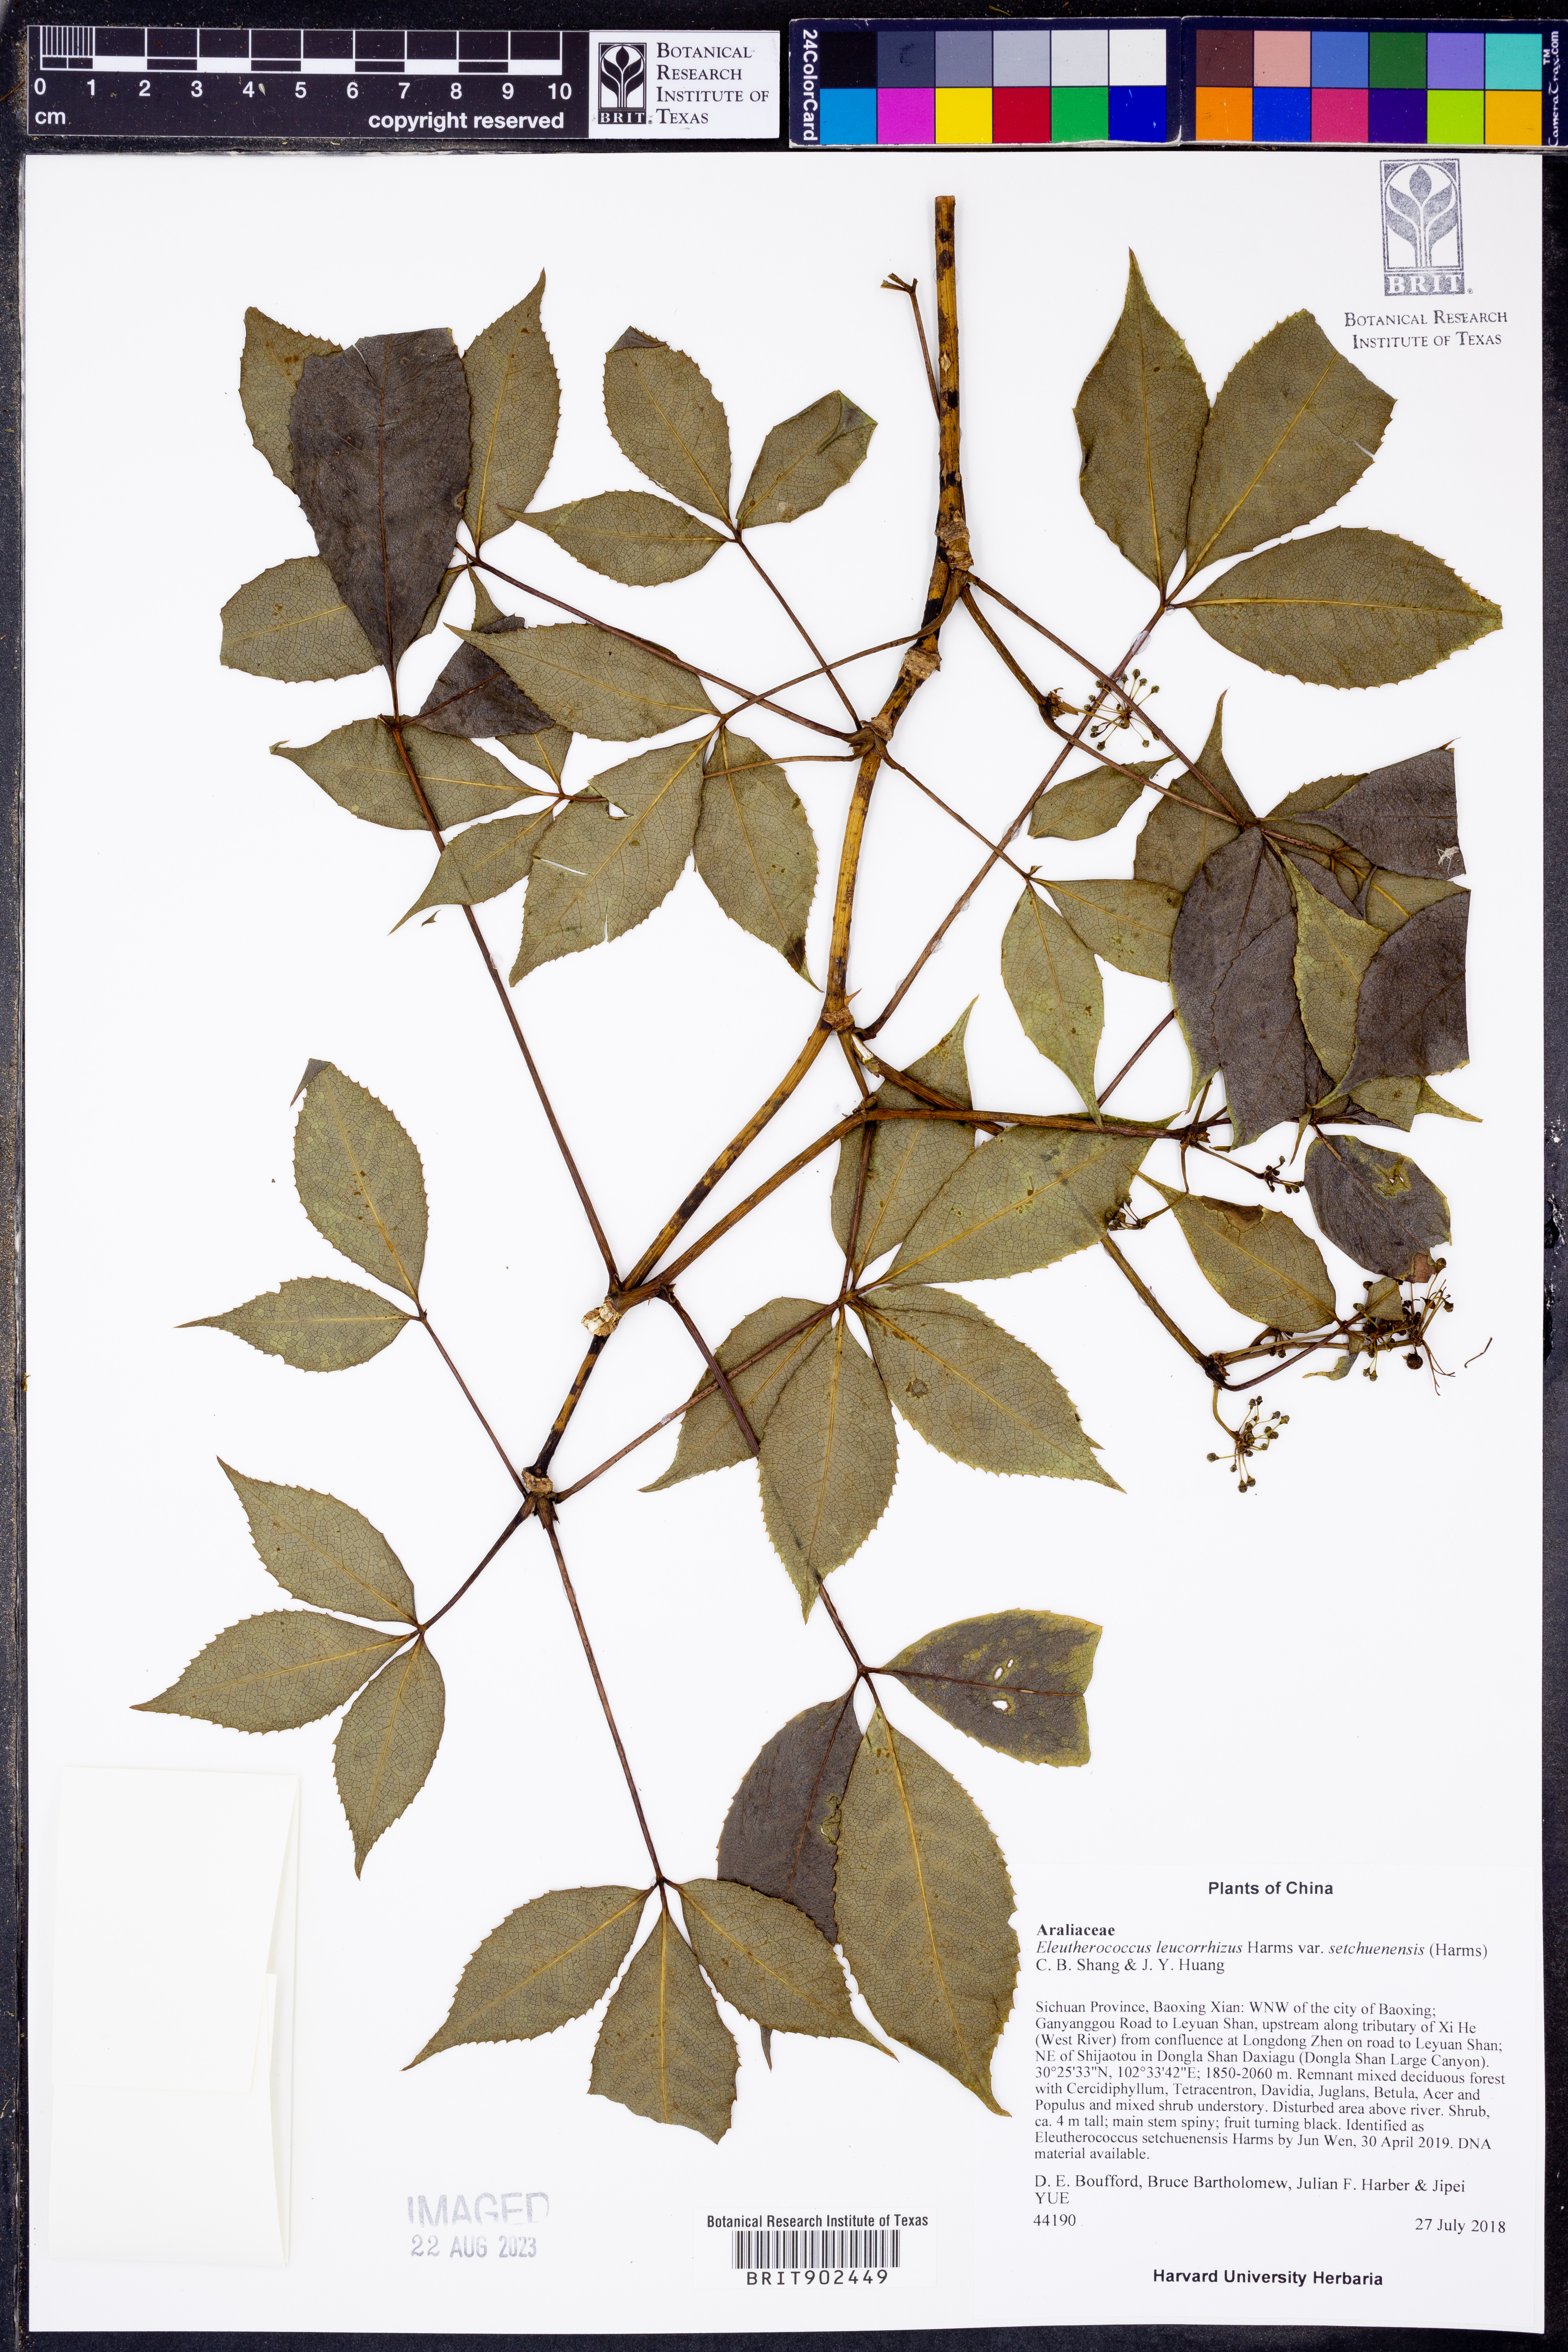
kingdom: Plantae
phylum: Tracheophyta
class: Magnoliopsida
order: Apiales
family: Araliaceae
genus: Eleutherococcus
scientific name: Eleutherococcus leucorrhizus
